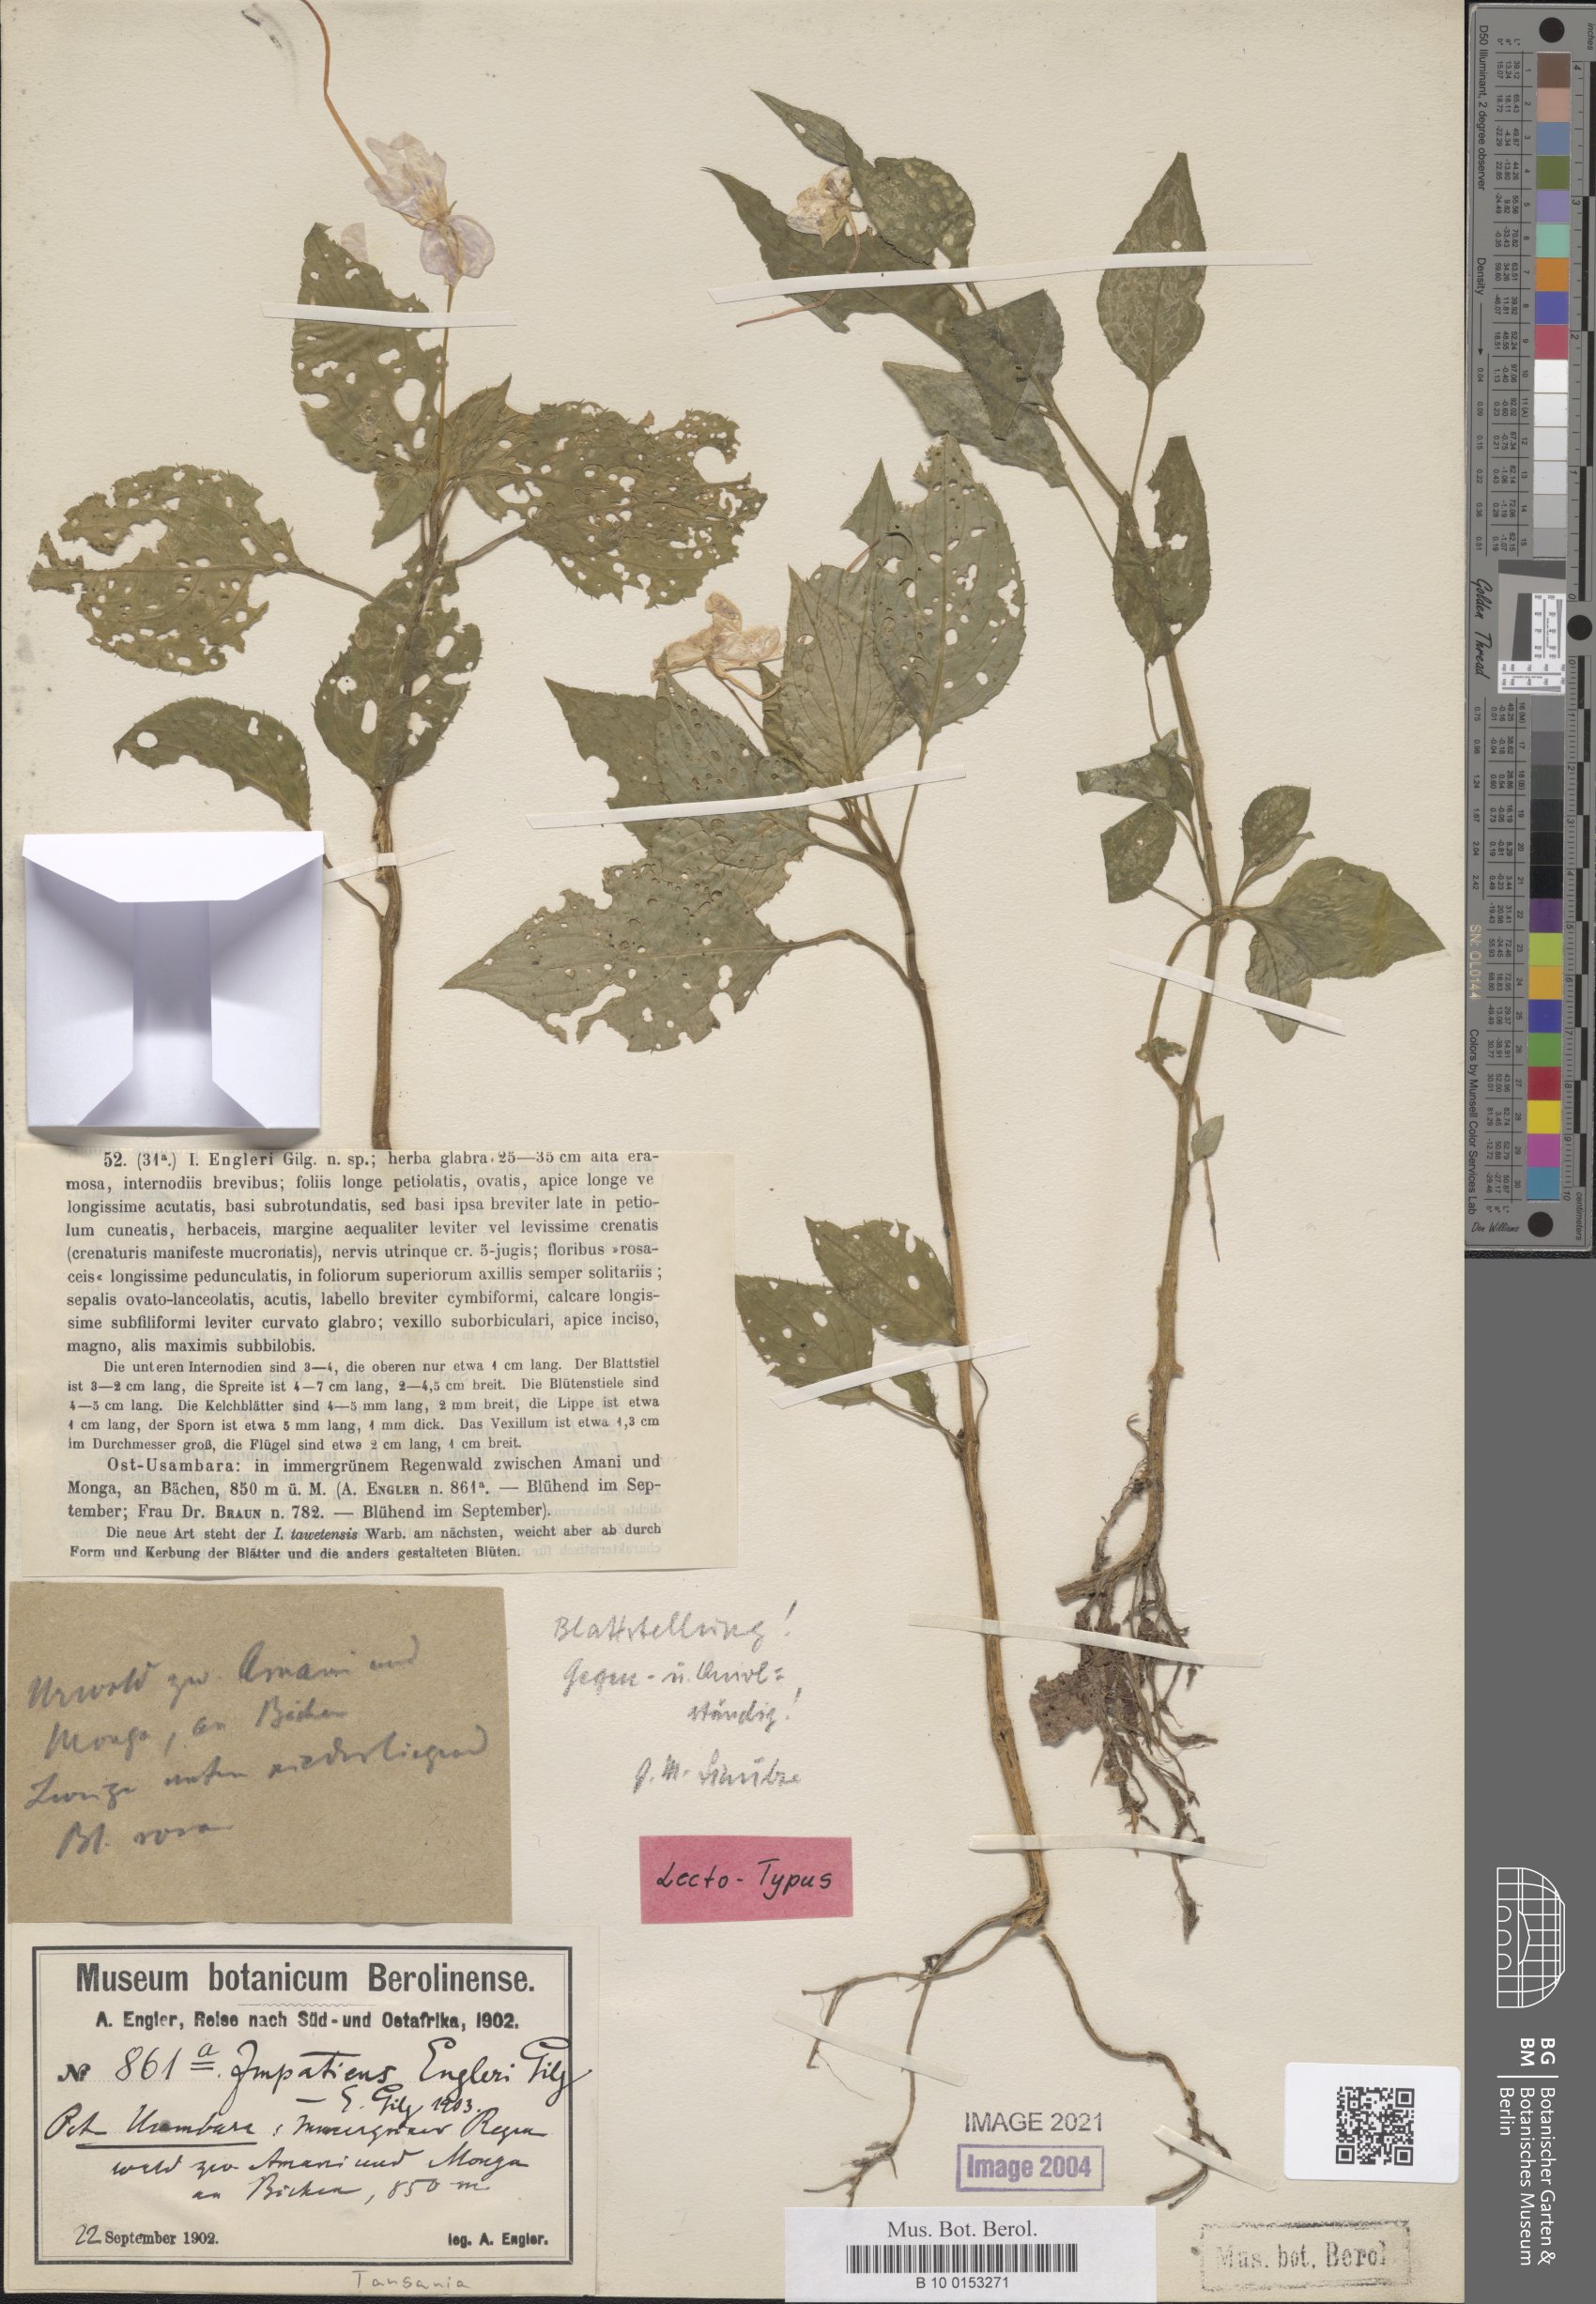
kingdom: Plantae
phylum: Tracheophyta
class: Magnoliopsida
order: Ericales
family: Balsaminaceae
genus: Impatiens
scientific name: Impatiens engleri
